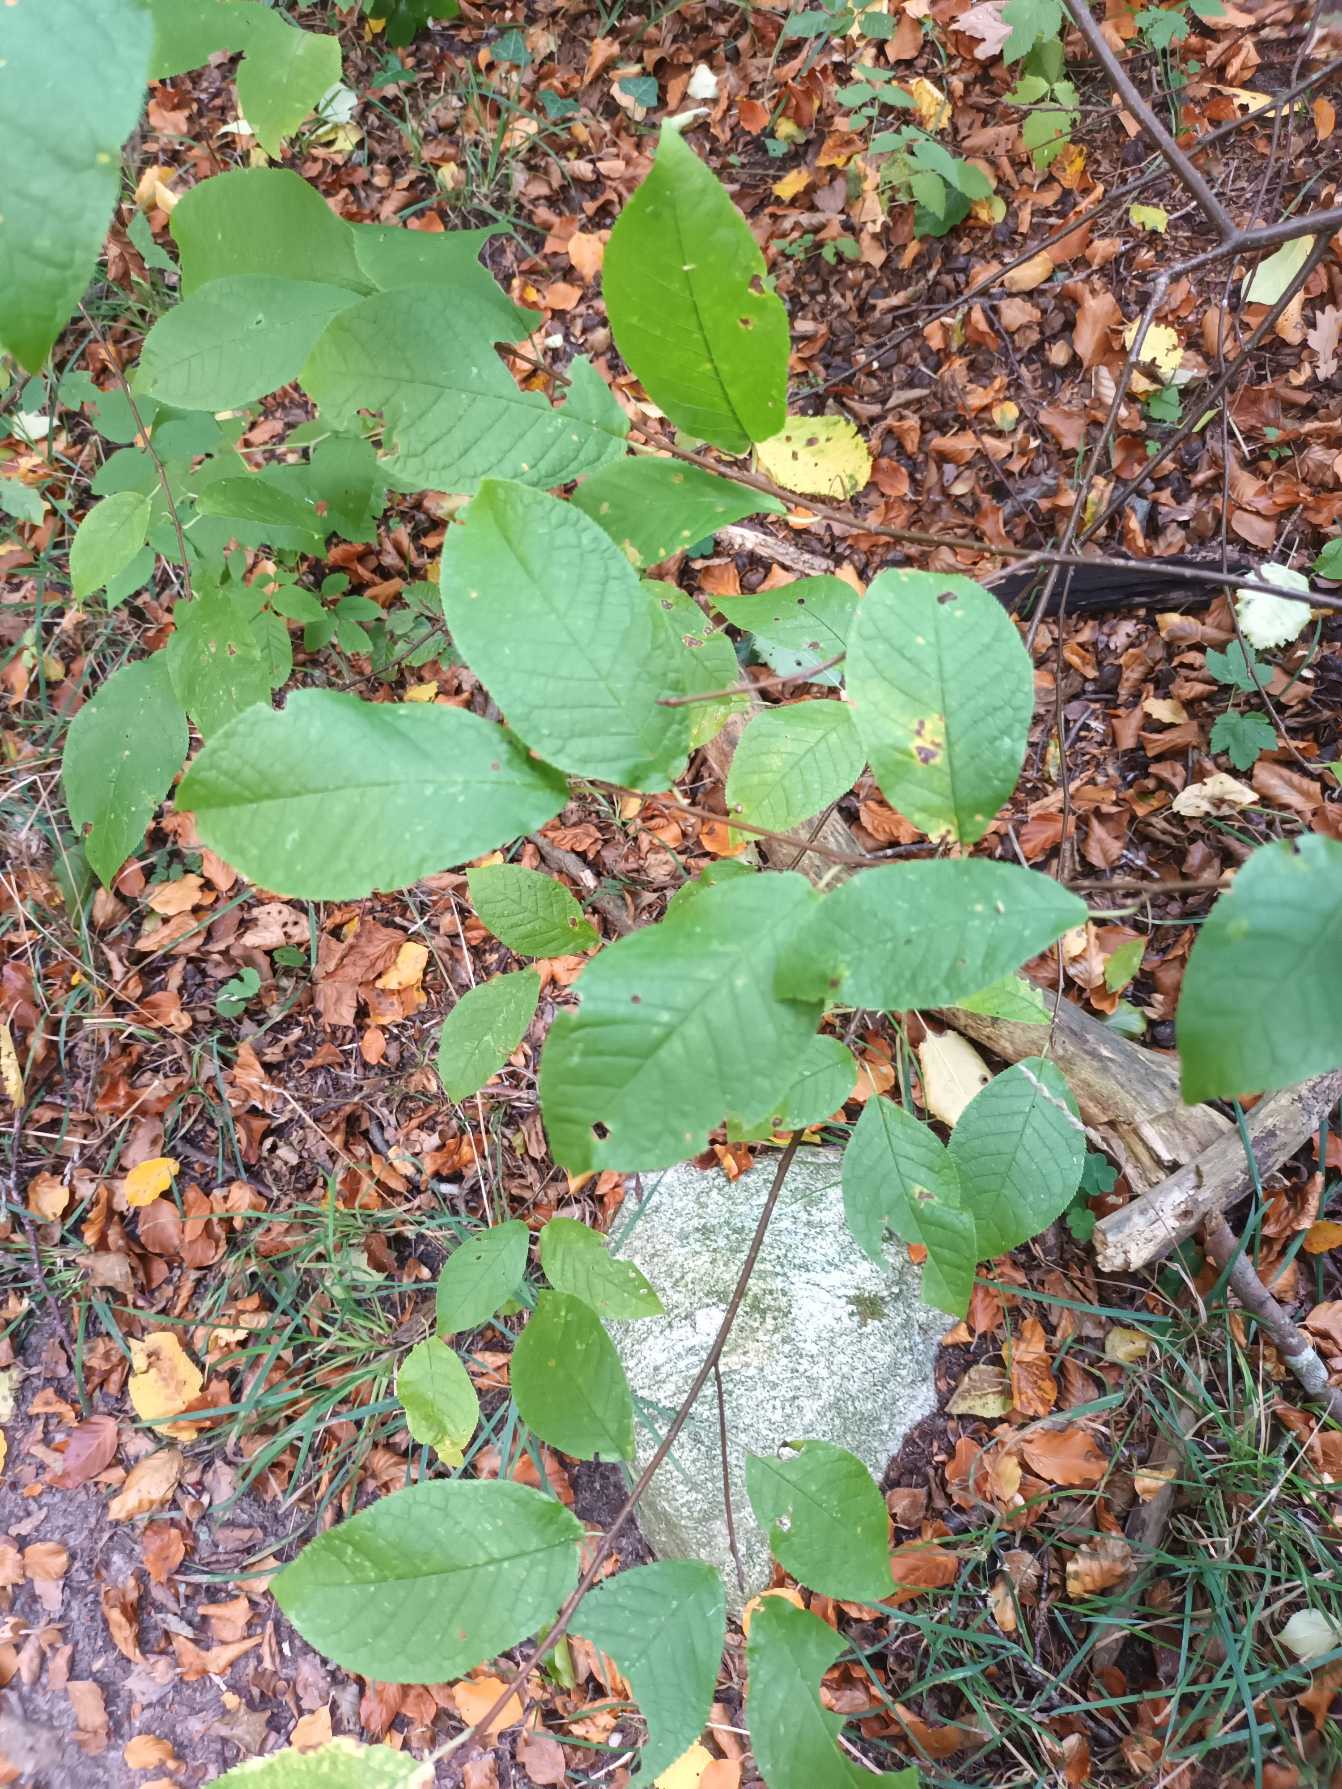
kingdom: Plantae
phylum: Tracheophyta
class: Magnoliopsida
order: Rosales
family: Rosaceae
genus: Prunus
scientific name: Prunus padus
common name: Almindelig hæg
